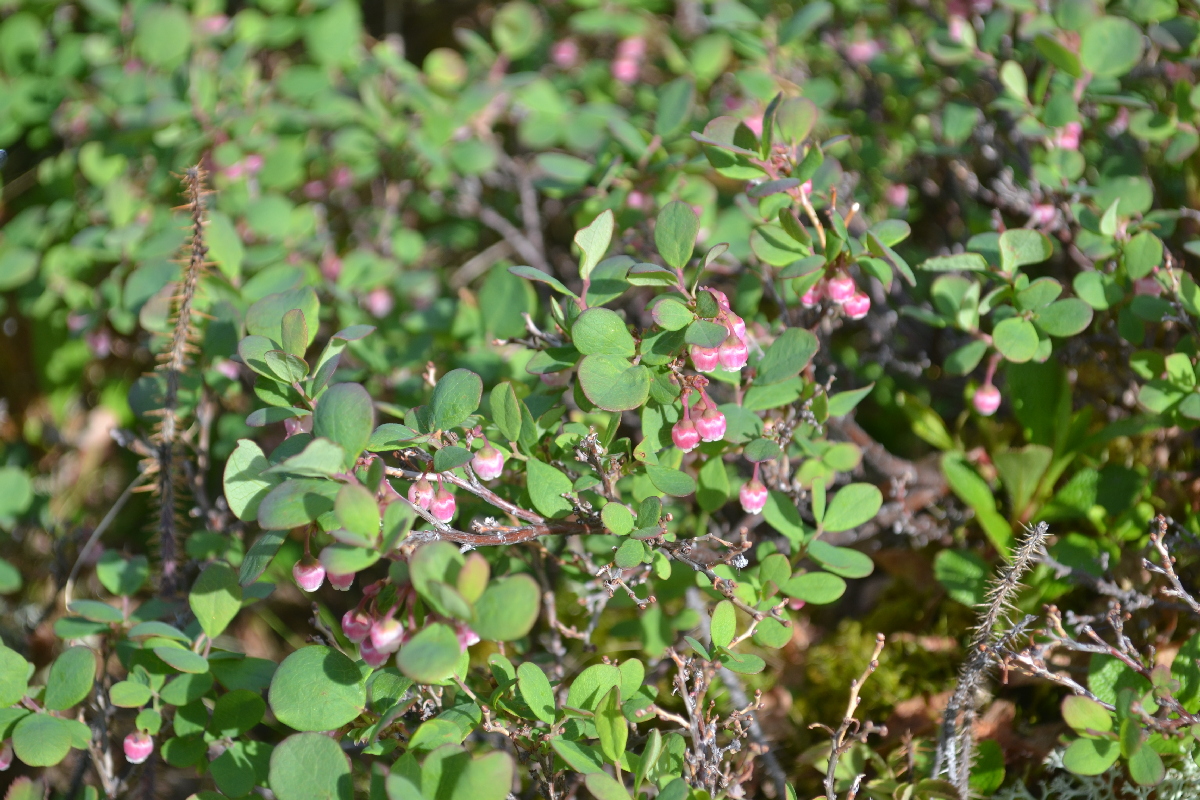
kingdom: Plantae
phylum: Tracheophyta
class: Magnoliopsida
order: Ericales
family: Ericaceae
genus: Vaccinium
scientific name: Vaccinium uliginosum
